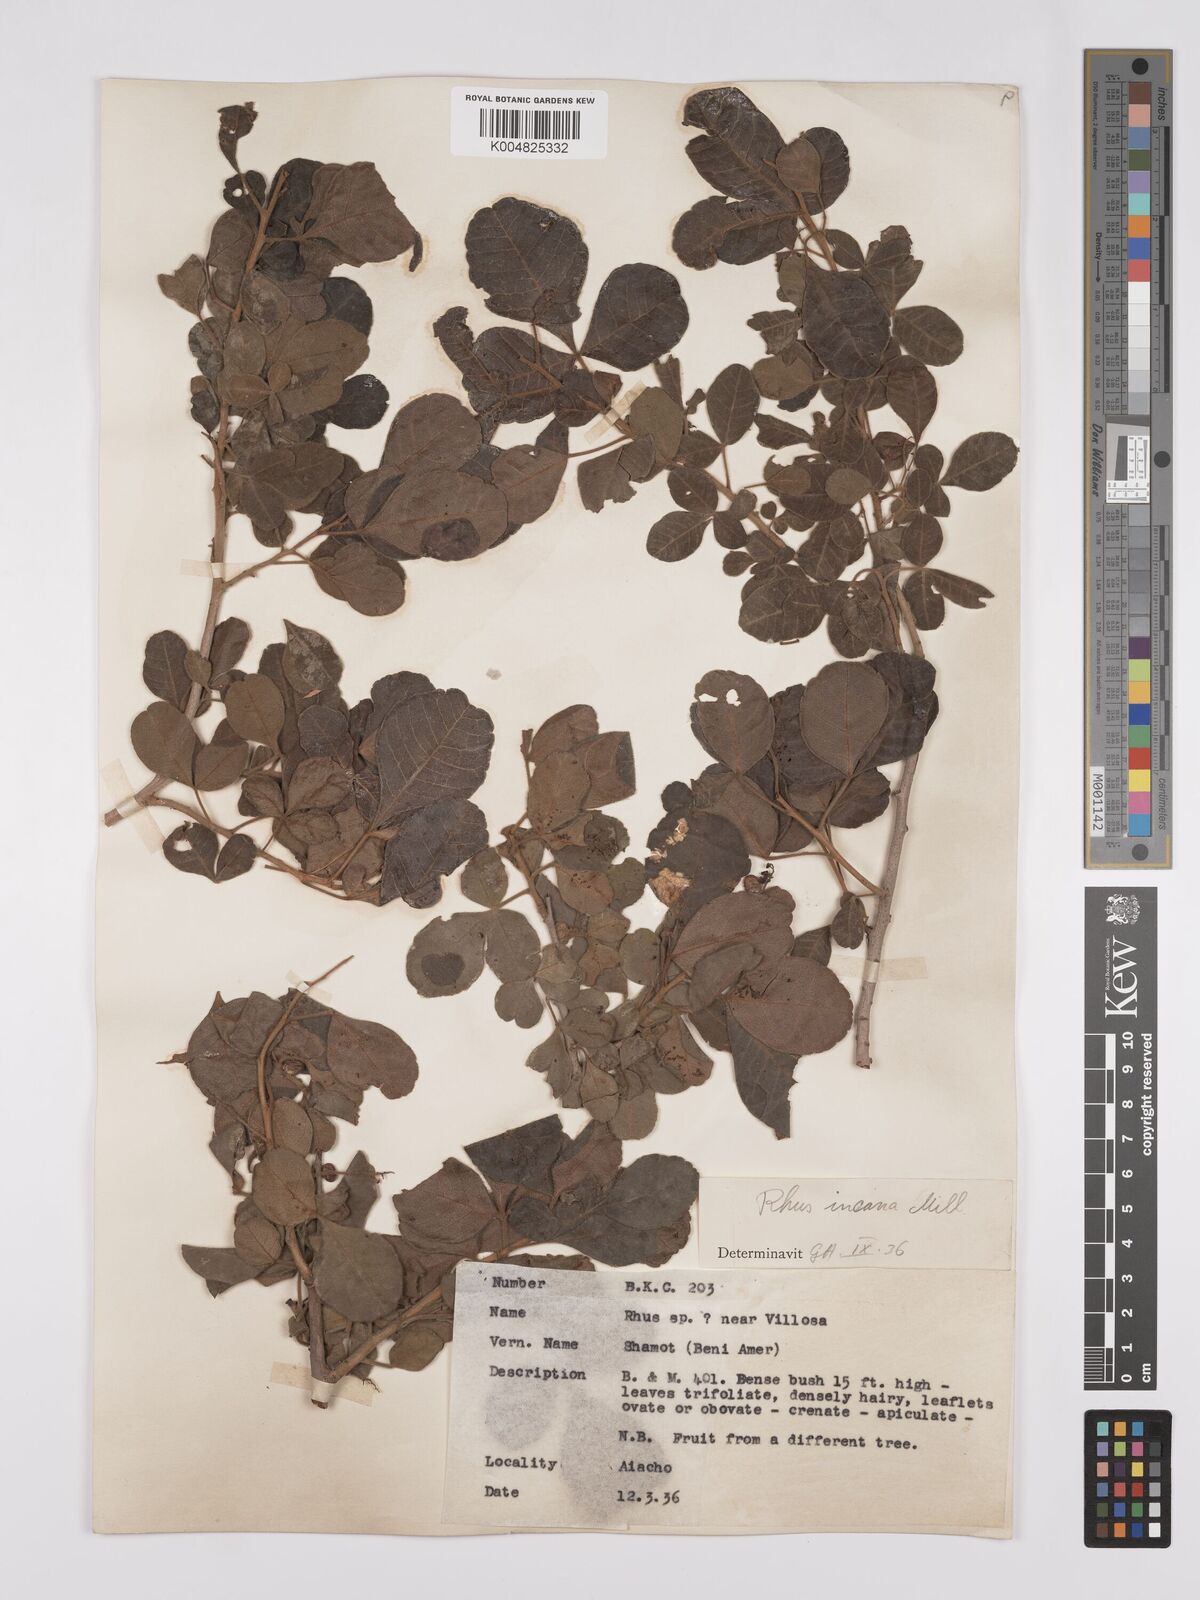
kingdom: Plantae
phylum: Tracheophyta
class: Magnoliopsida
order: Sapindales
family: Anacardiaceae
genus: Searsia
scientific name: Searsia flexicaulis
